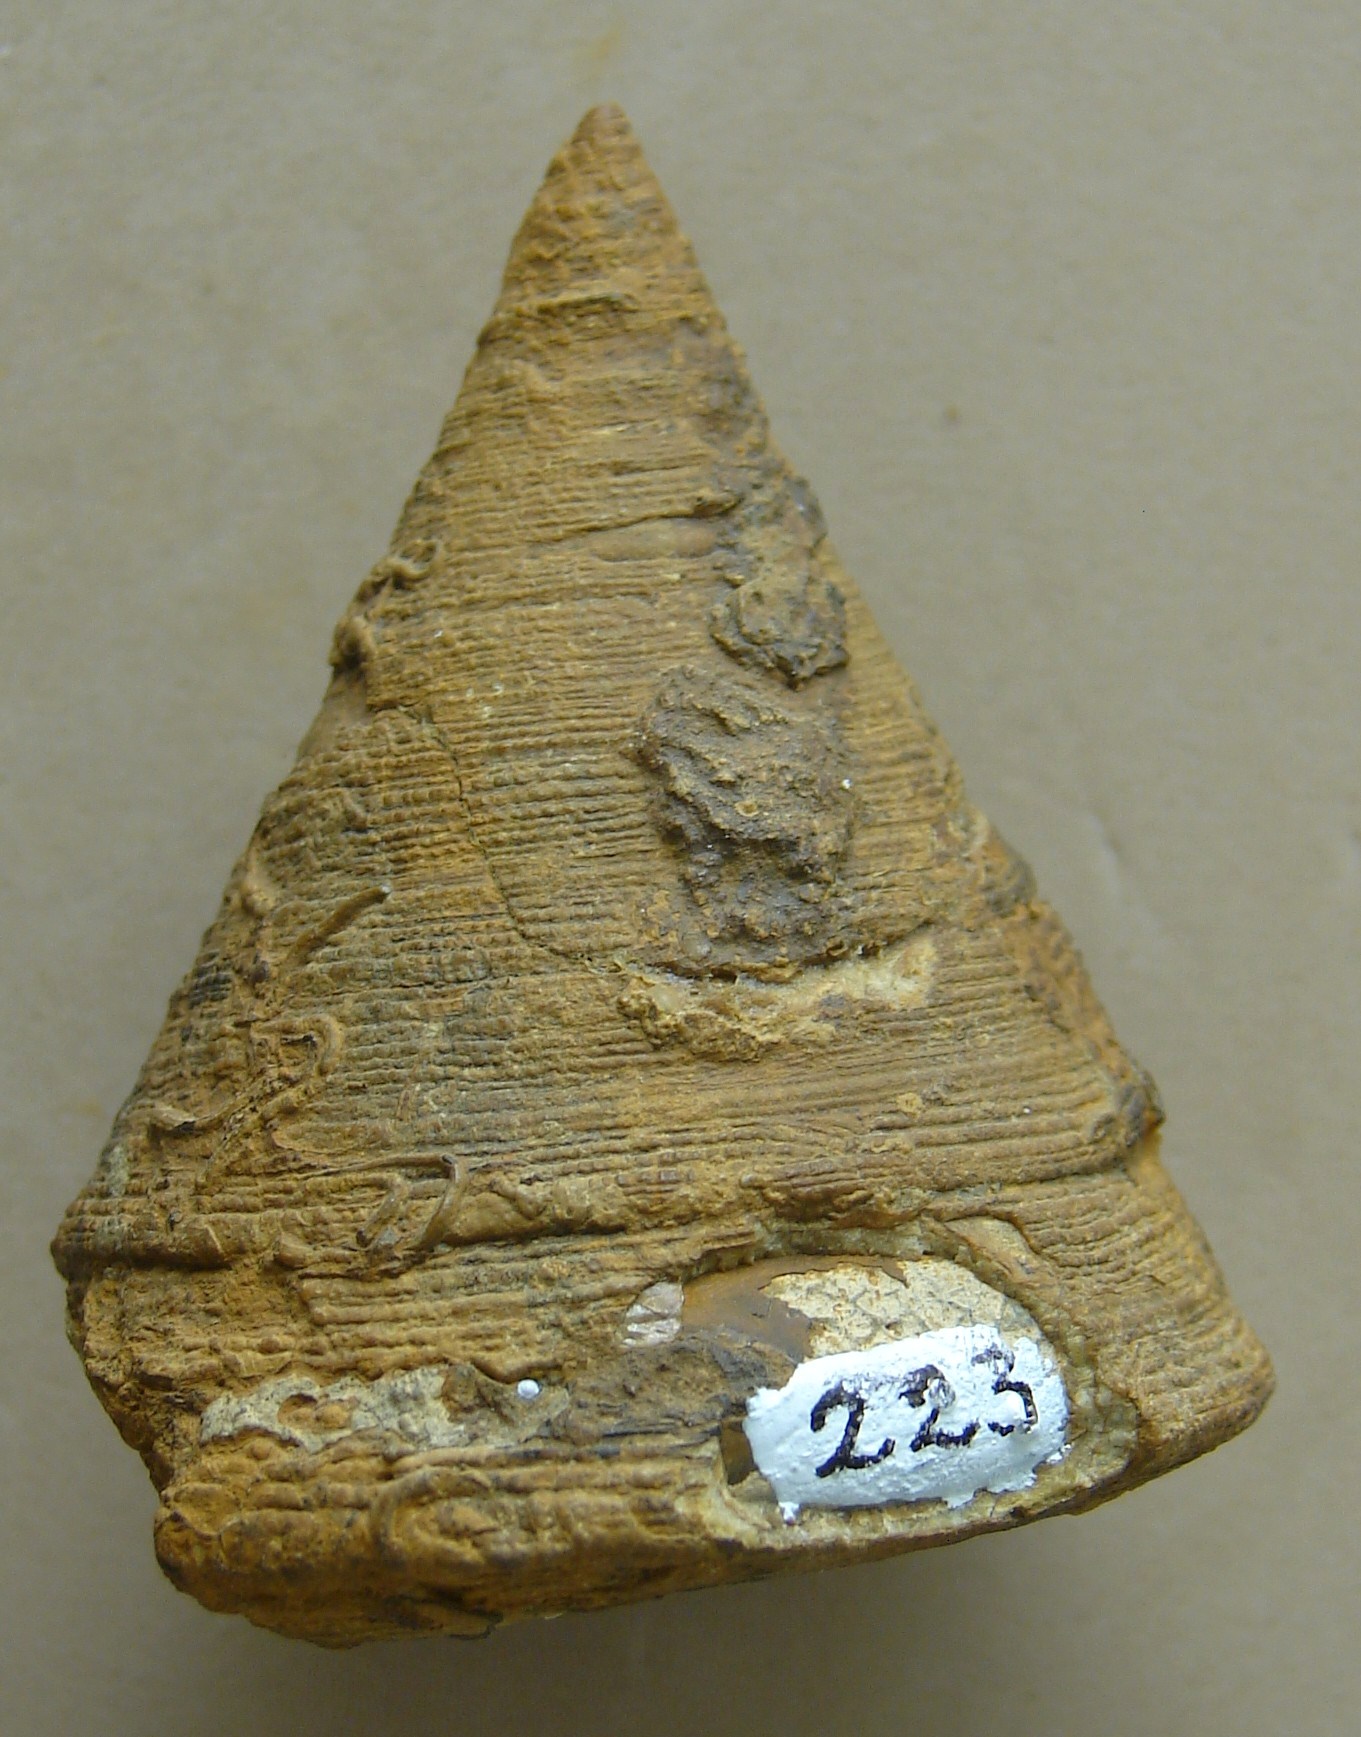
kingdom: Animalia
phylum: Mollusca
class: Gastropoda
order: Pleurotomariida
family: Pleurotomariidae
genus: Leptomaria
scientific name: Leptomaria Trochus punctatus
